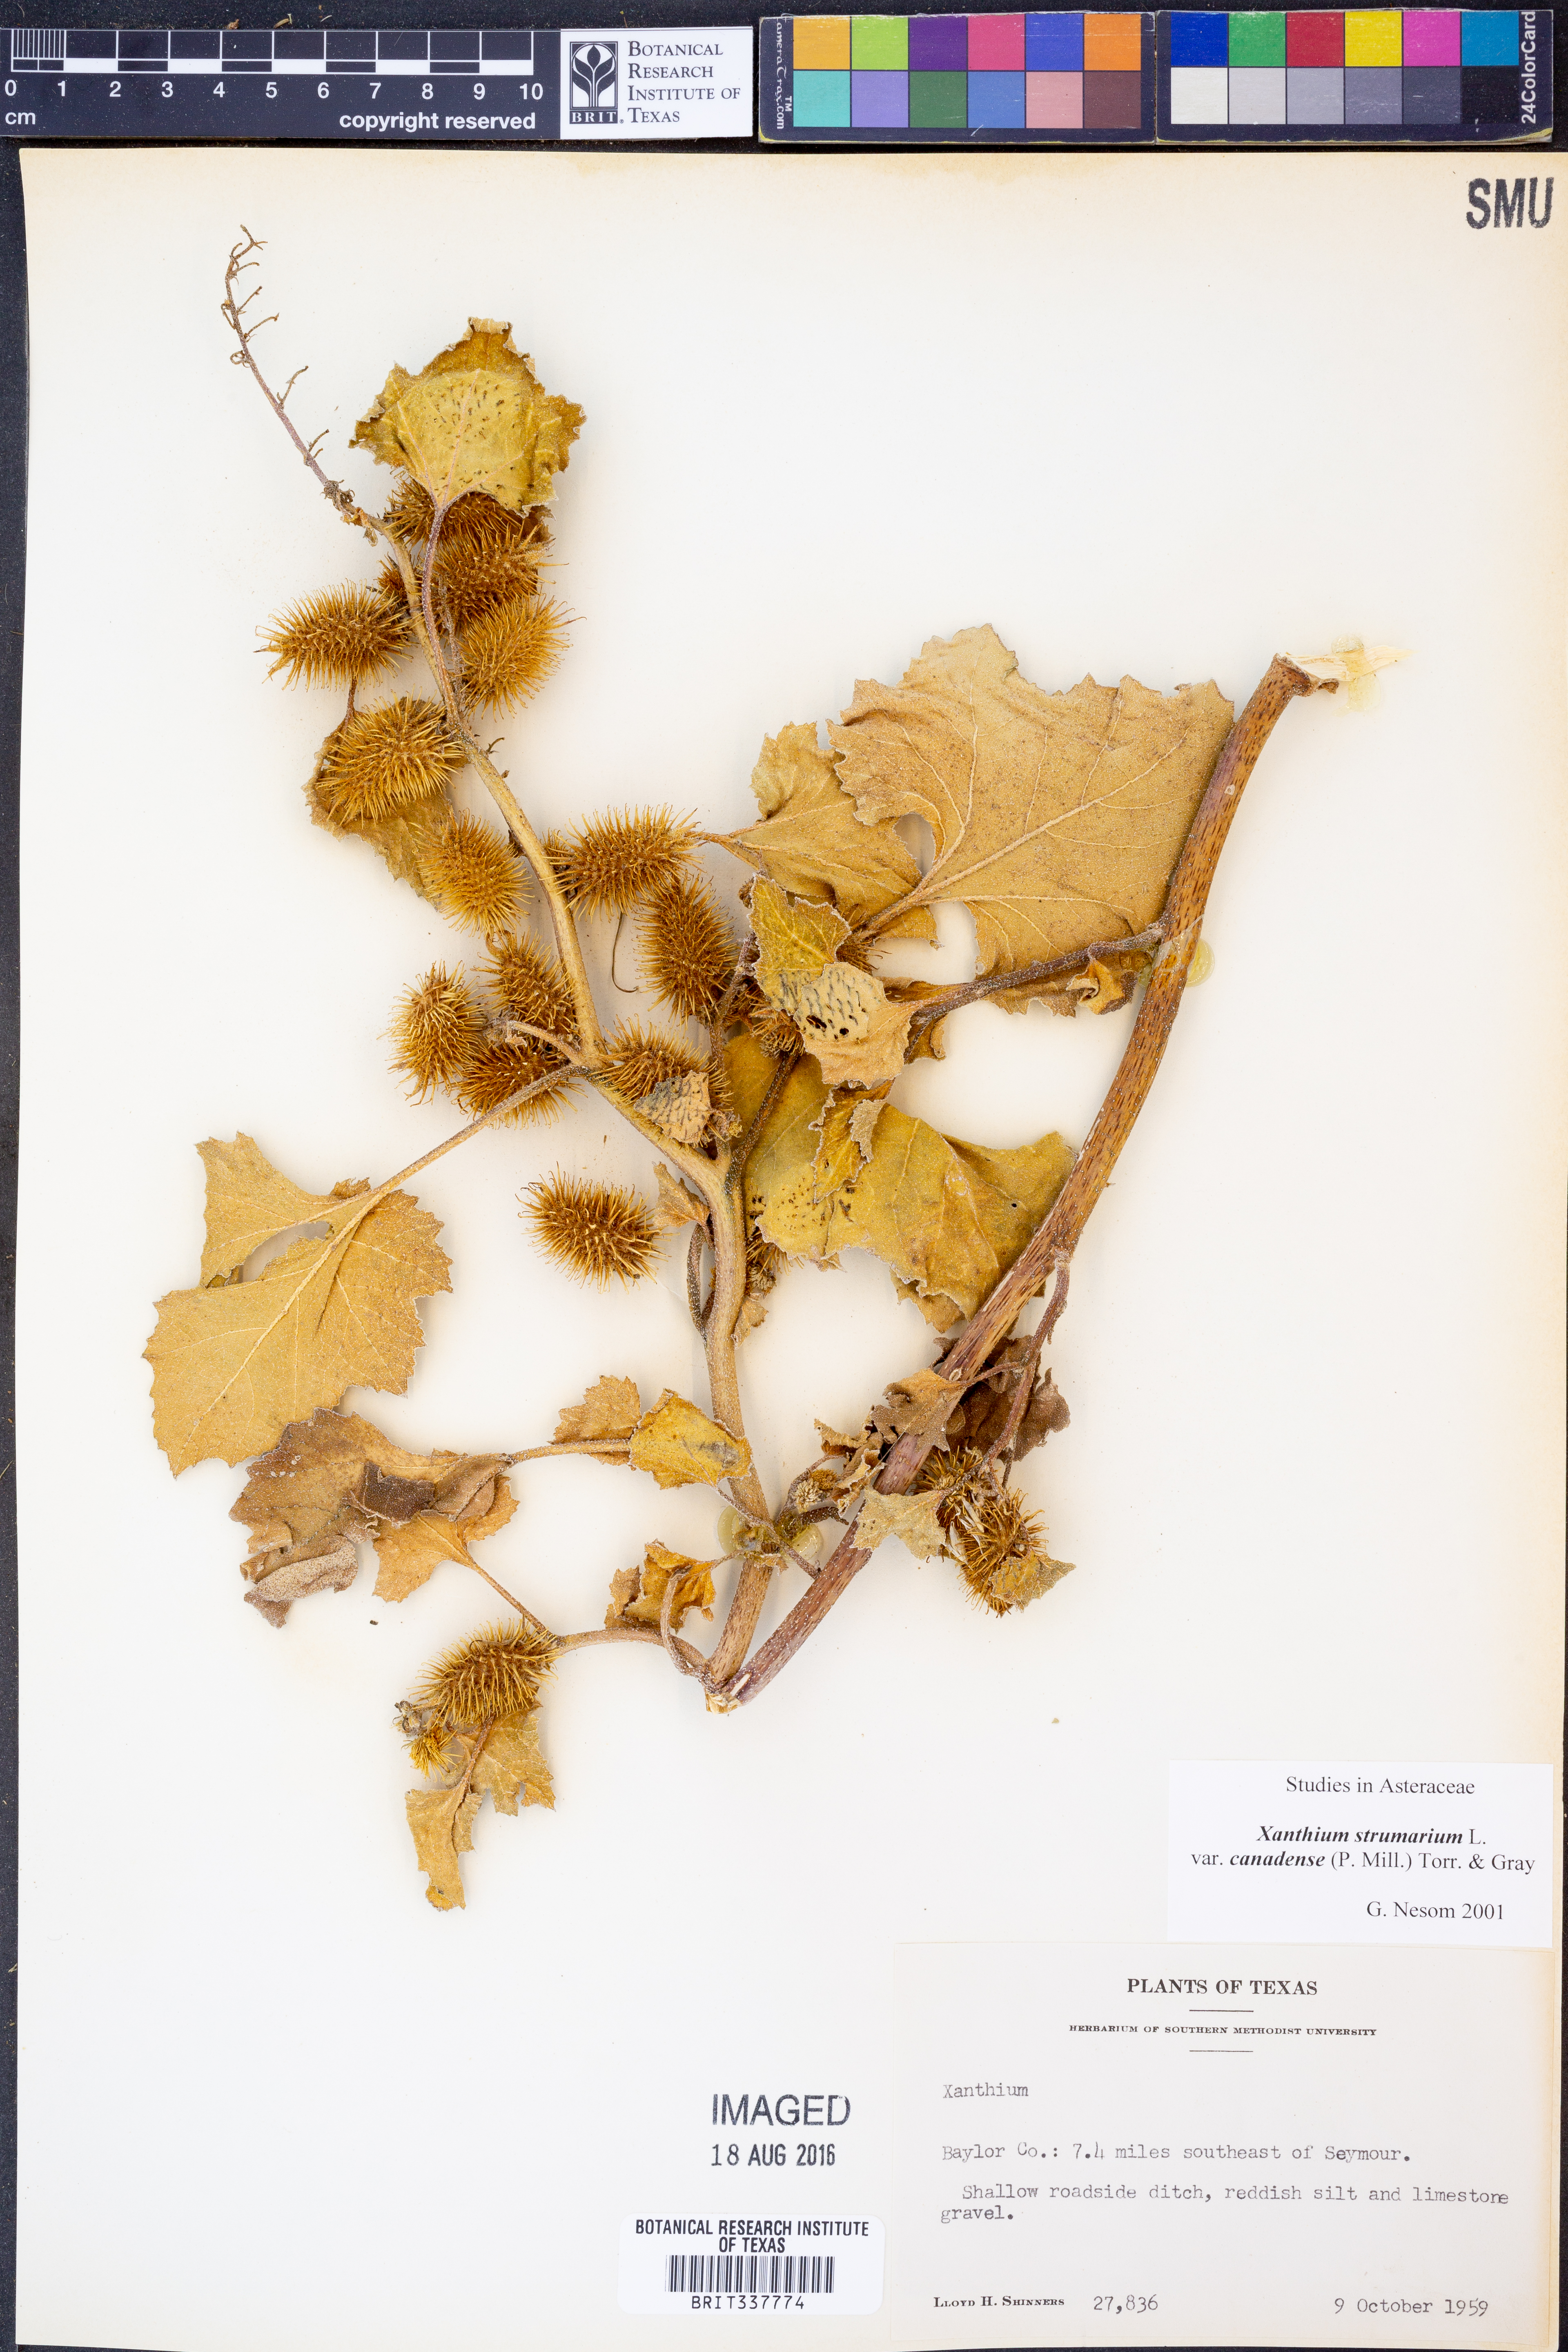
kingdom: Plantae
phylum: Tracheophyta
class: Magnoliopsida
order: Asterales
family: Asteraceae
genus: Xanthium
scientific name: Xanthium orientale
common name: Californian burr
